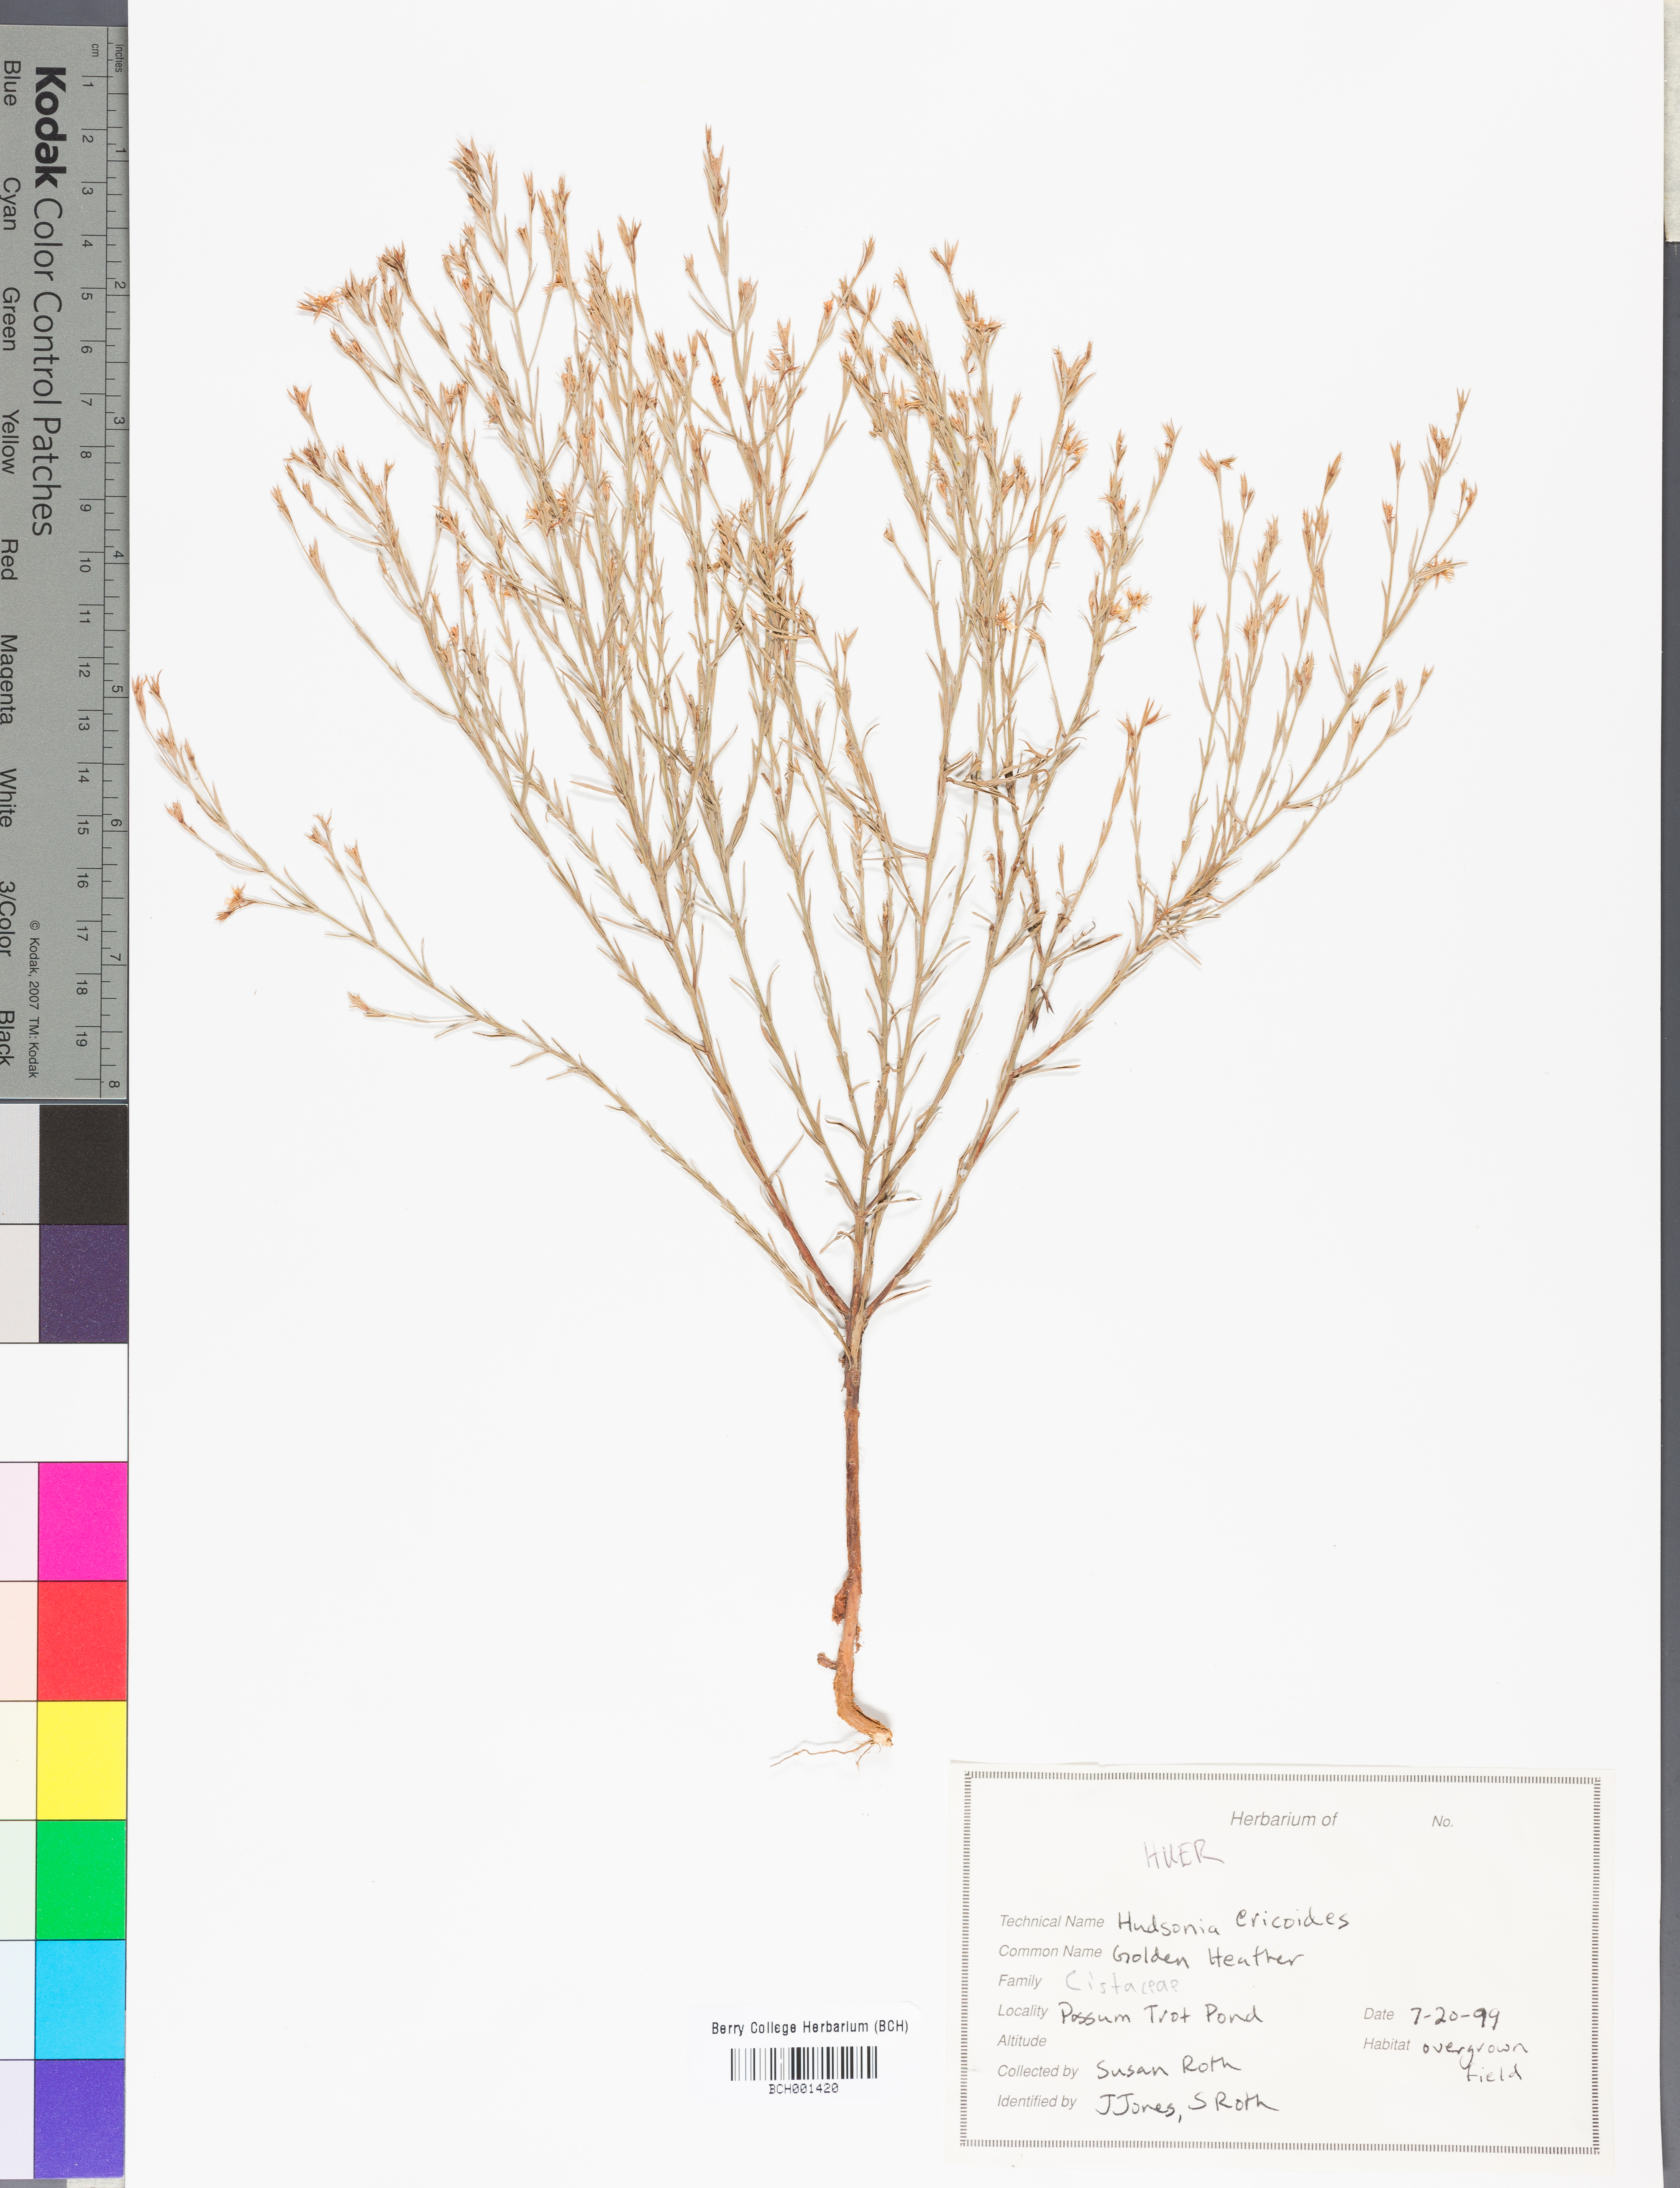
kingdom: Plantae
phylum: Tracheophyta
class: Magnoliopsida
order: Malvales
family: Cistaceae
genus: Hudsonia
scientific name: Hudsonia ericoides
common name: Golden-heather
